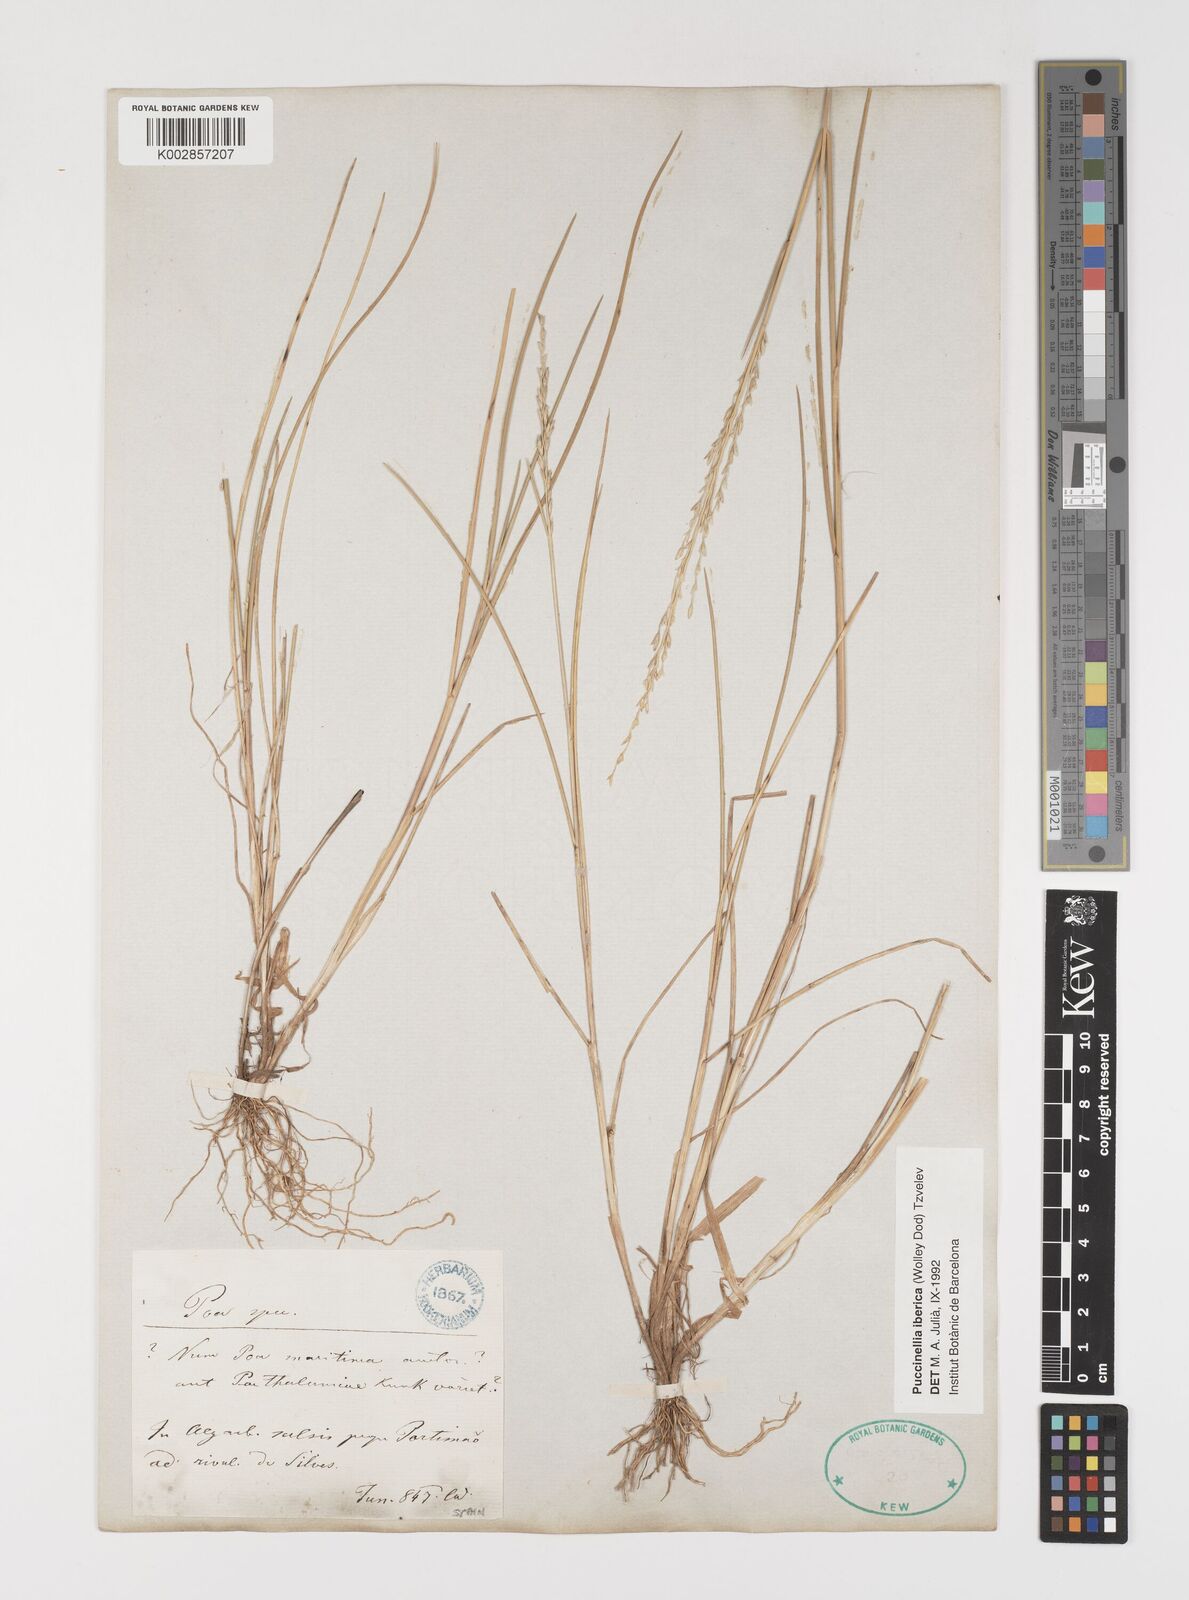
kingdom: Plantae
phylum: Tracheophyta
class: Liliopsida
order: Poales
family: Poaceae
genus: Puccinellia
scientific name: Puccinellia iberica
